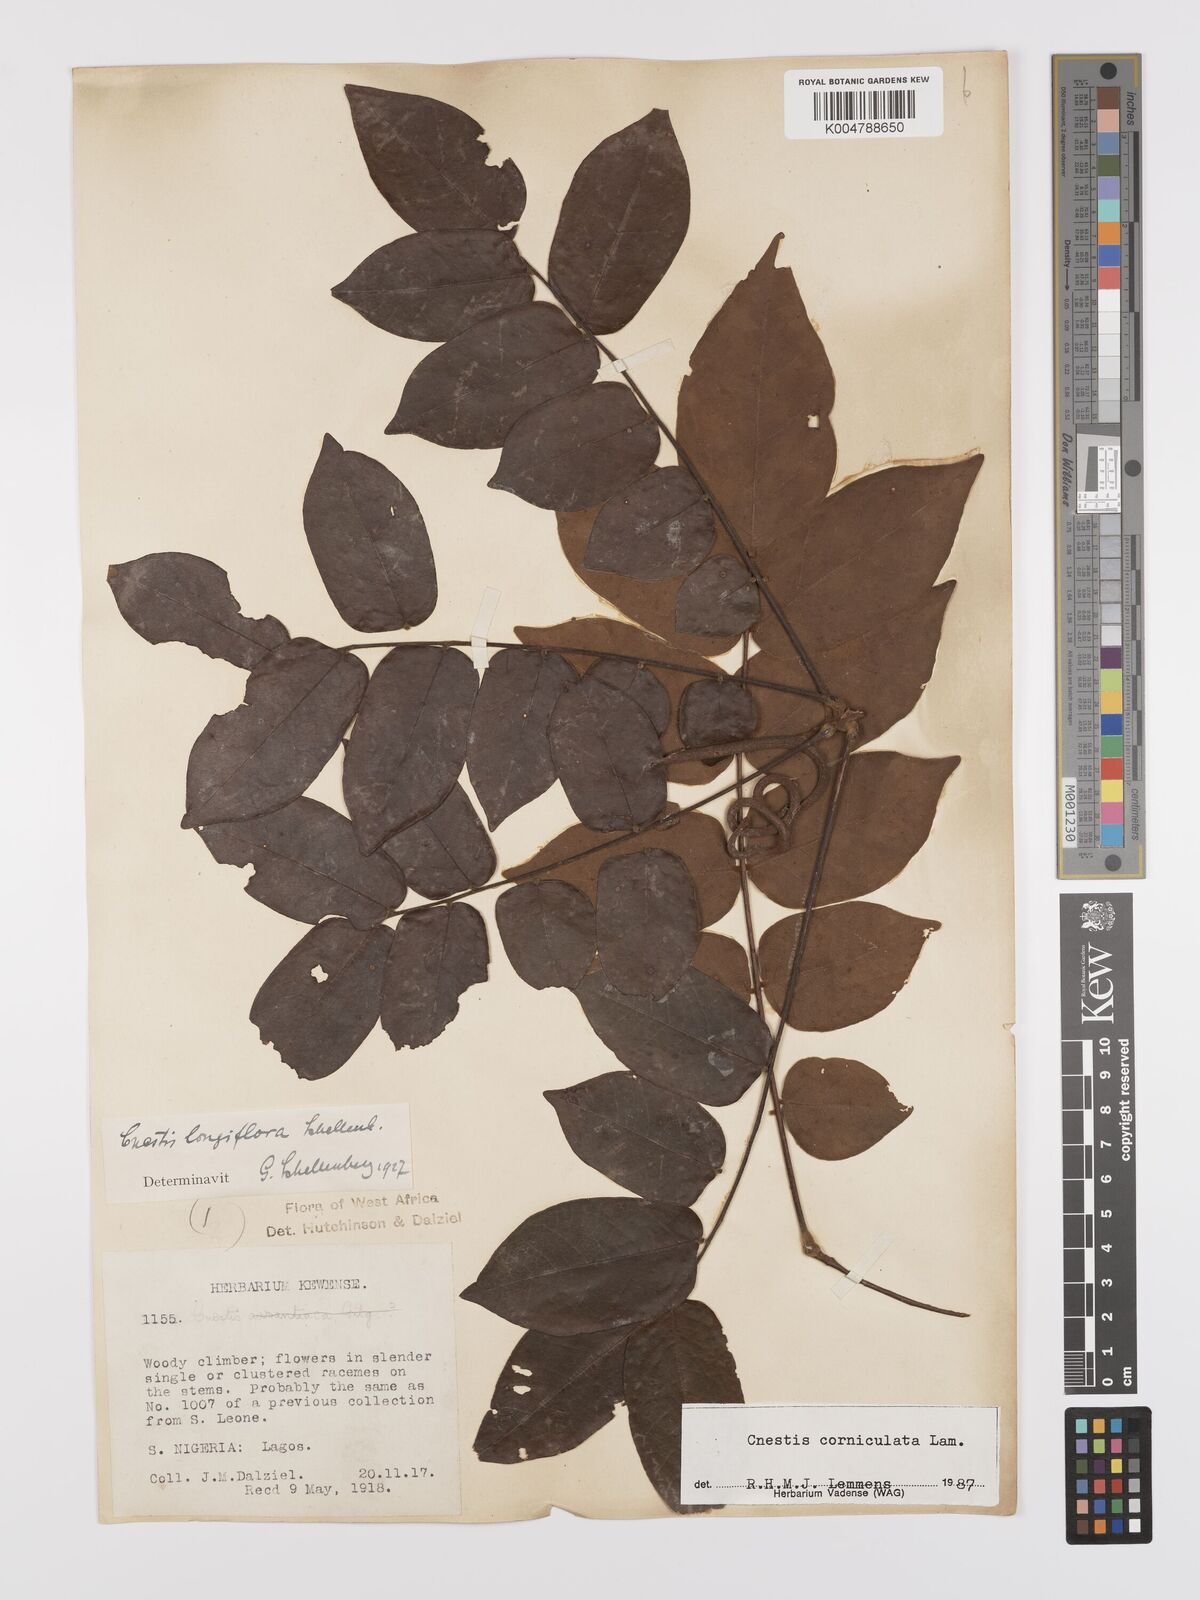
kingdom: Plantae
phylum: Tracheophyta
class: Magnoliopsida
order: Oxalidales
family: Connaraceae
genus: Cnestis
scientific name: Cnestis corniculata
